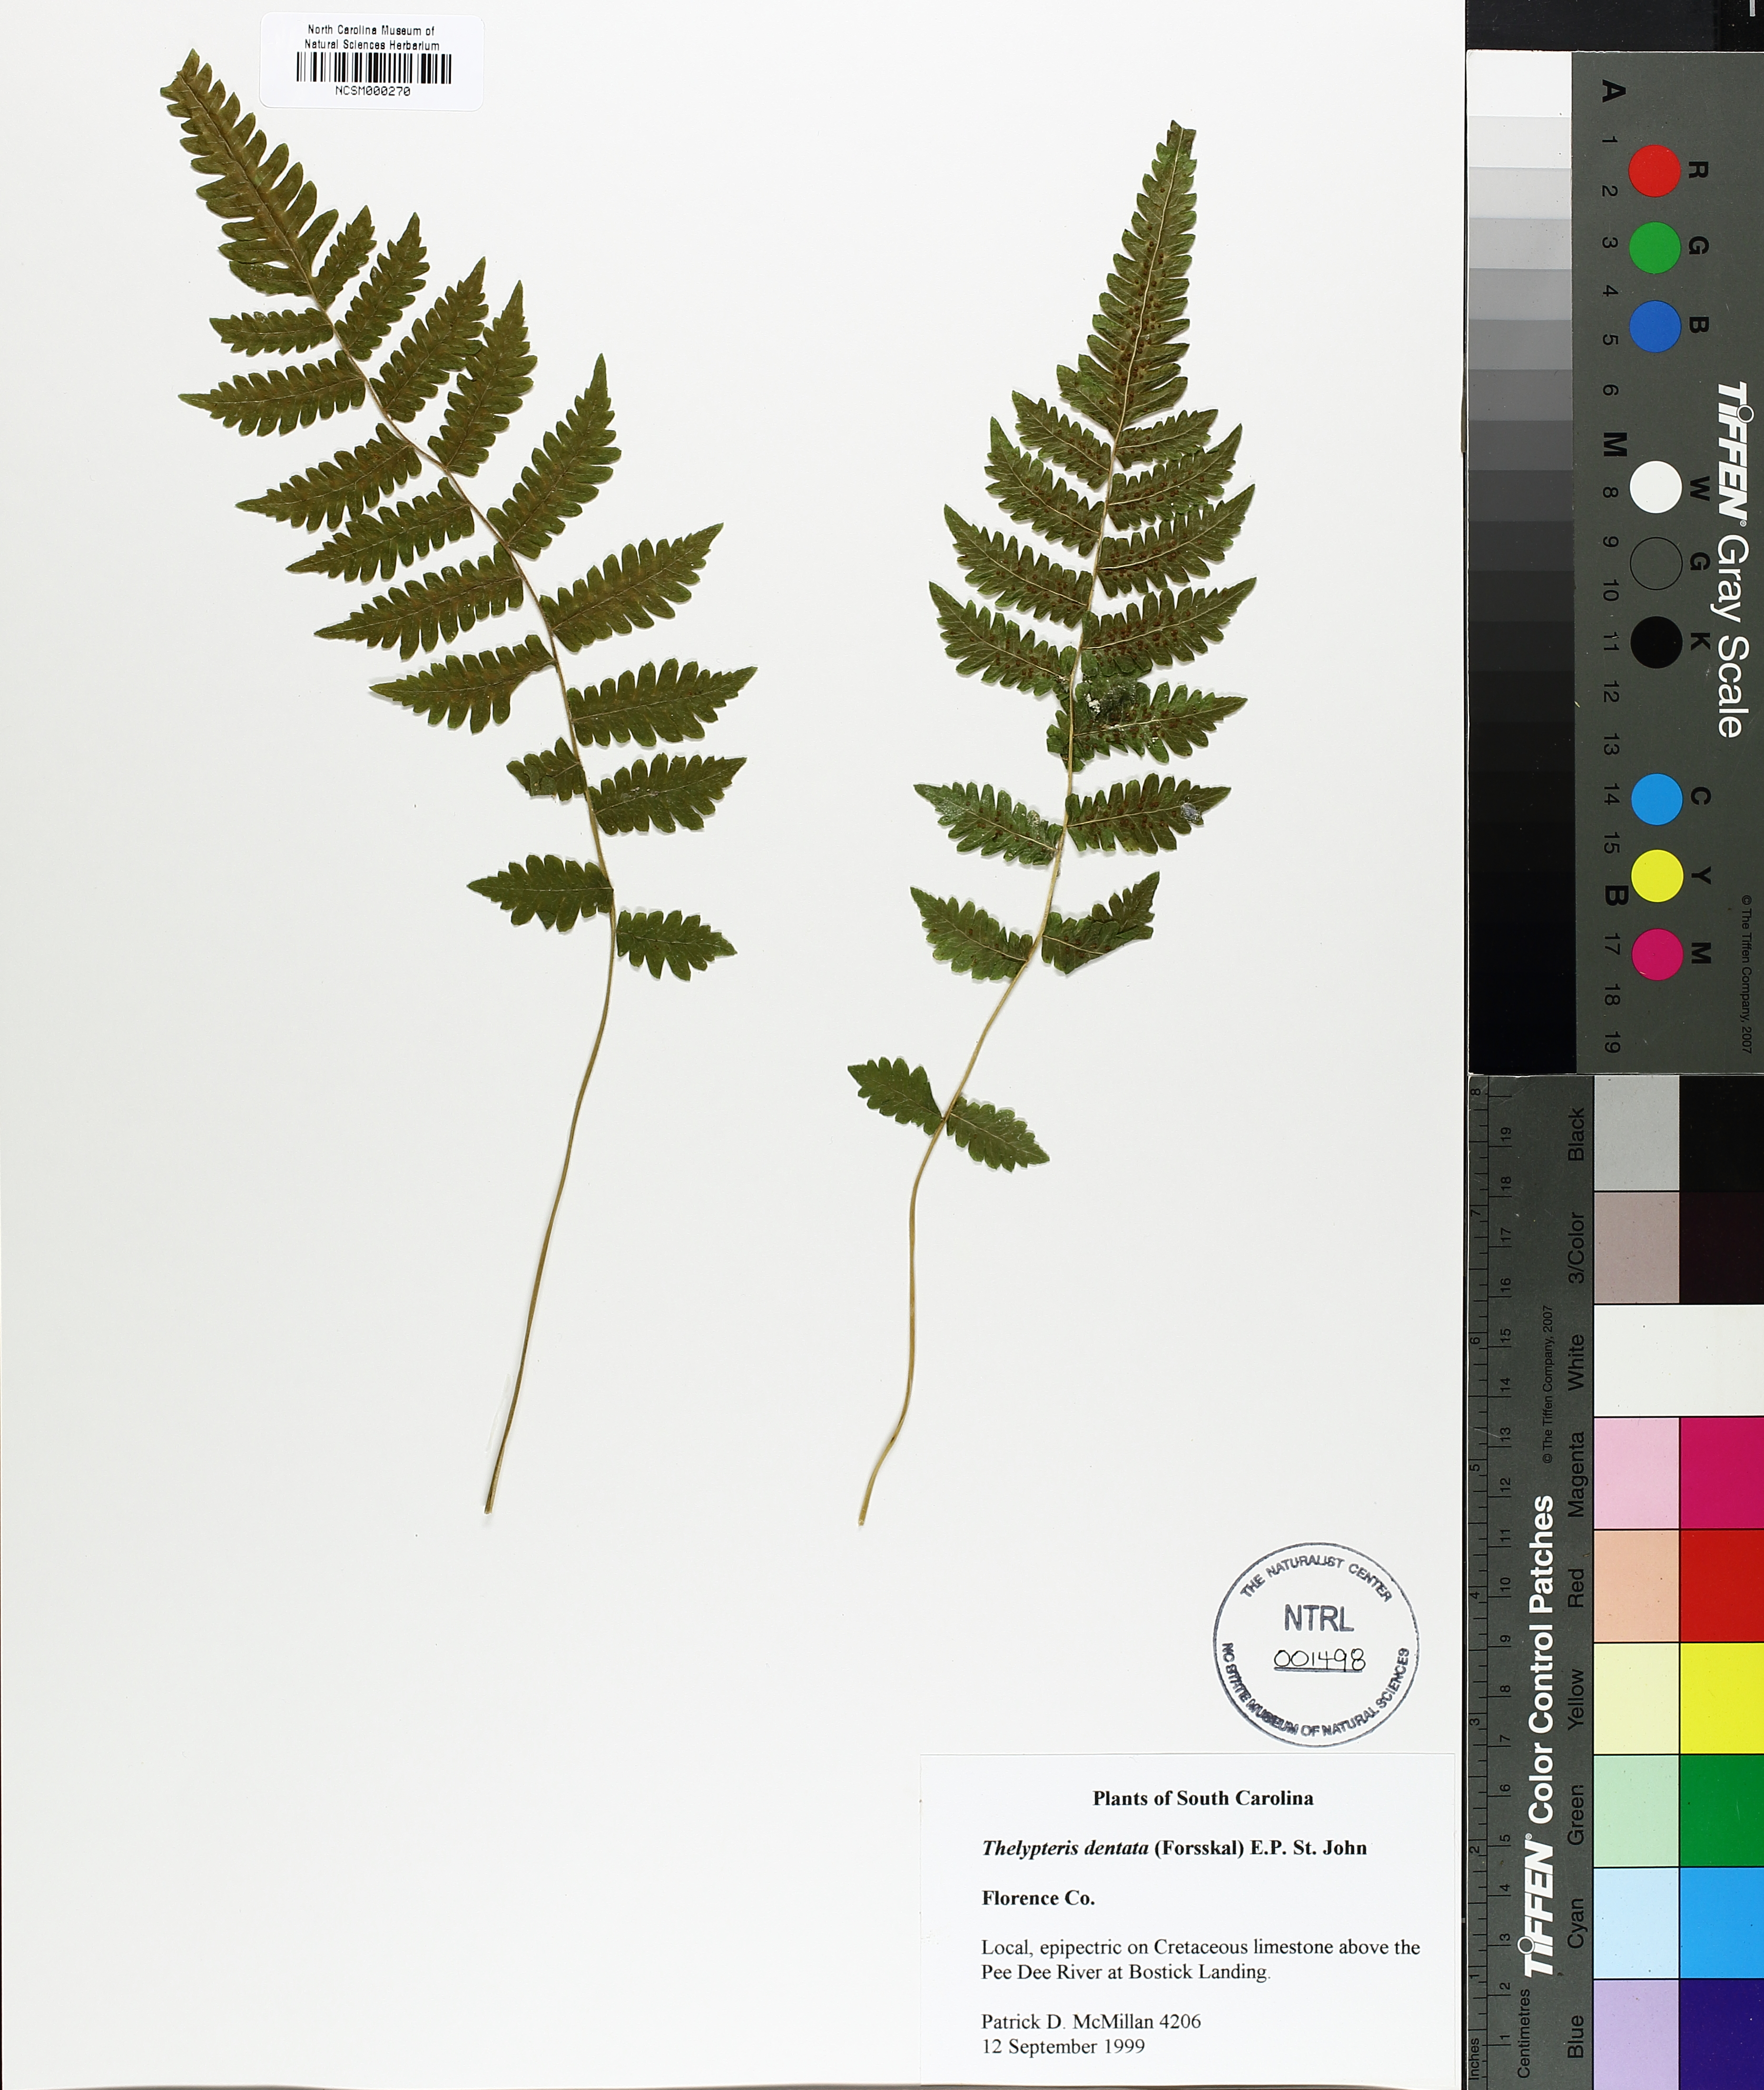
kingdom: Plantae
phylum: Tracheophyta
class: Polypodiopsida
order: Polypodiales
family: Thelypteridaceae
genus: Christella
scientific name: Christella dentata
